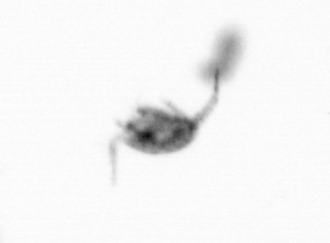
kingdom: Animalia
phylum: Arthropoda
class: Copepoda
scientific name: Copepoda
